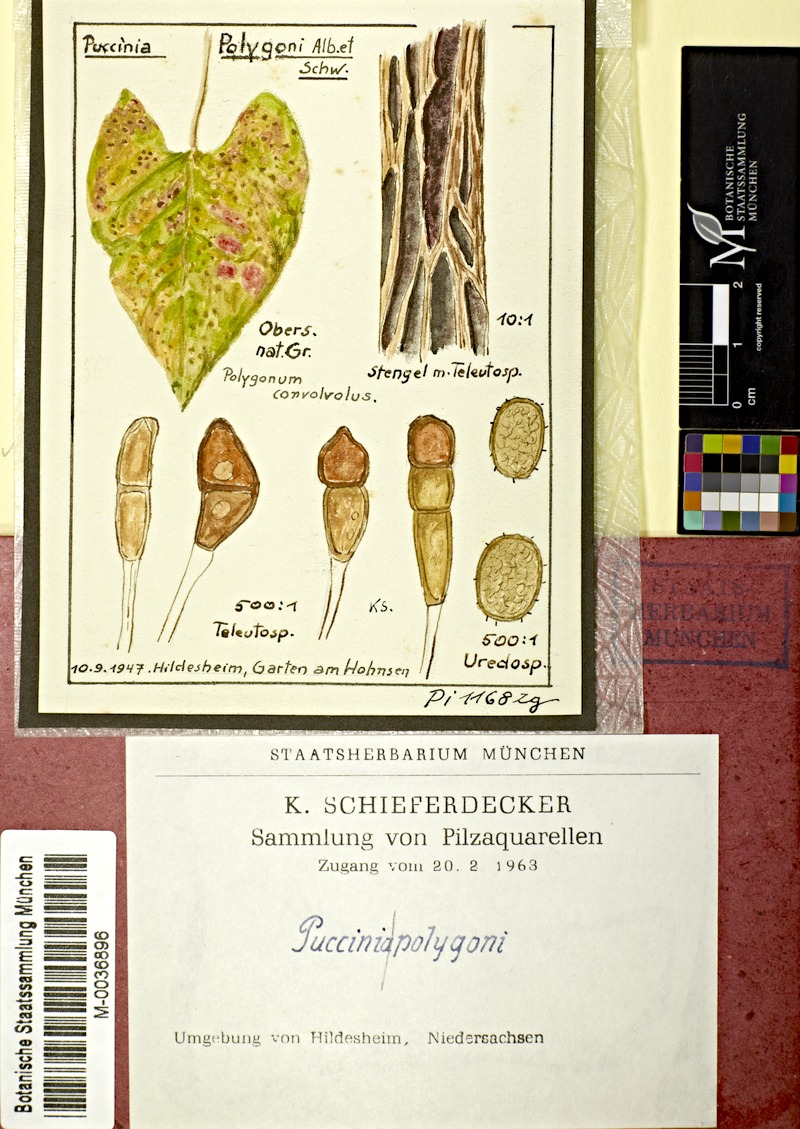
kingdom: Fungi
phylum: Basidiomycota
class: Pucciniomycetes
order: Pucciniales
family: Pucciniaceae
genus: Puccinia
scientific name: Puccinia polygoni-amphibii
